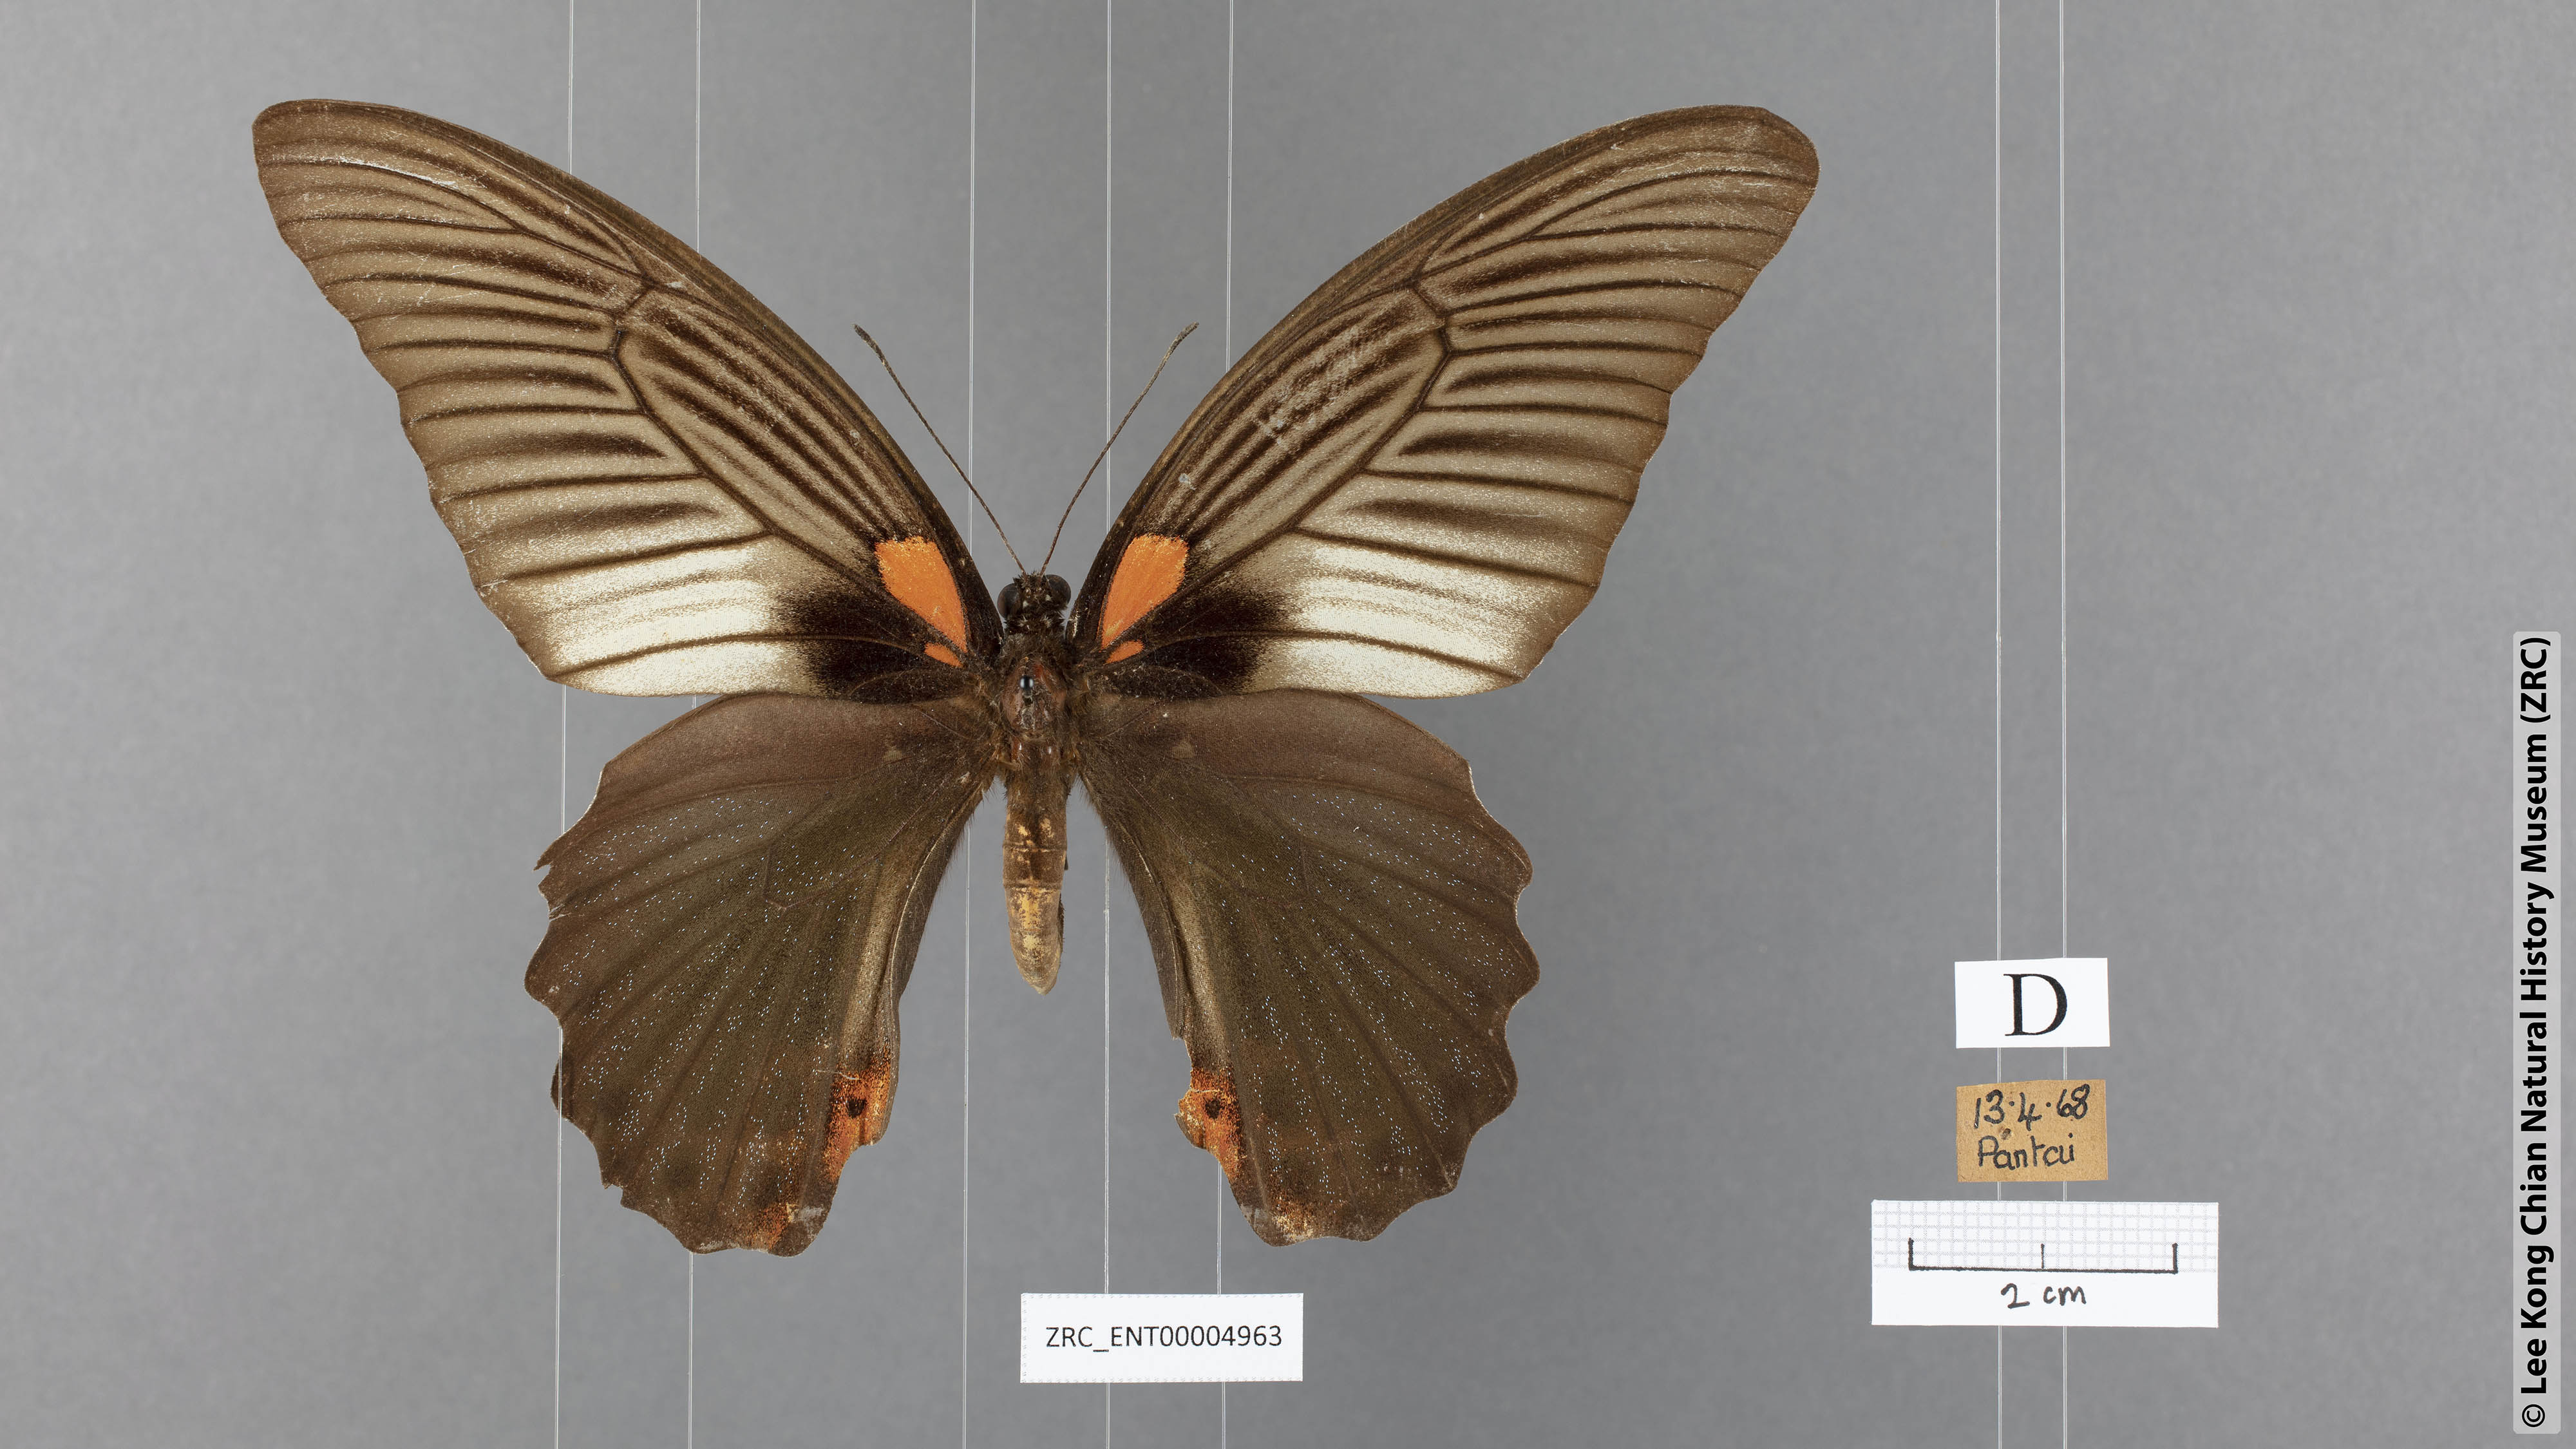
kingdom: Animalia
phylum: Arthropoda
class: Insecta
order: Lepidoptera
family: Papilionidae
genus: Papilio
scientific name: Papilio memnon
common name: Great mormon
